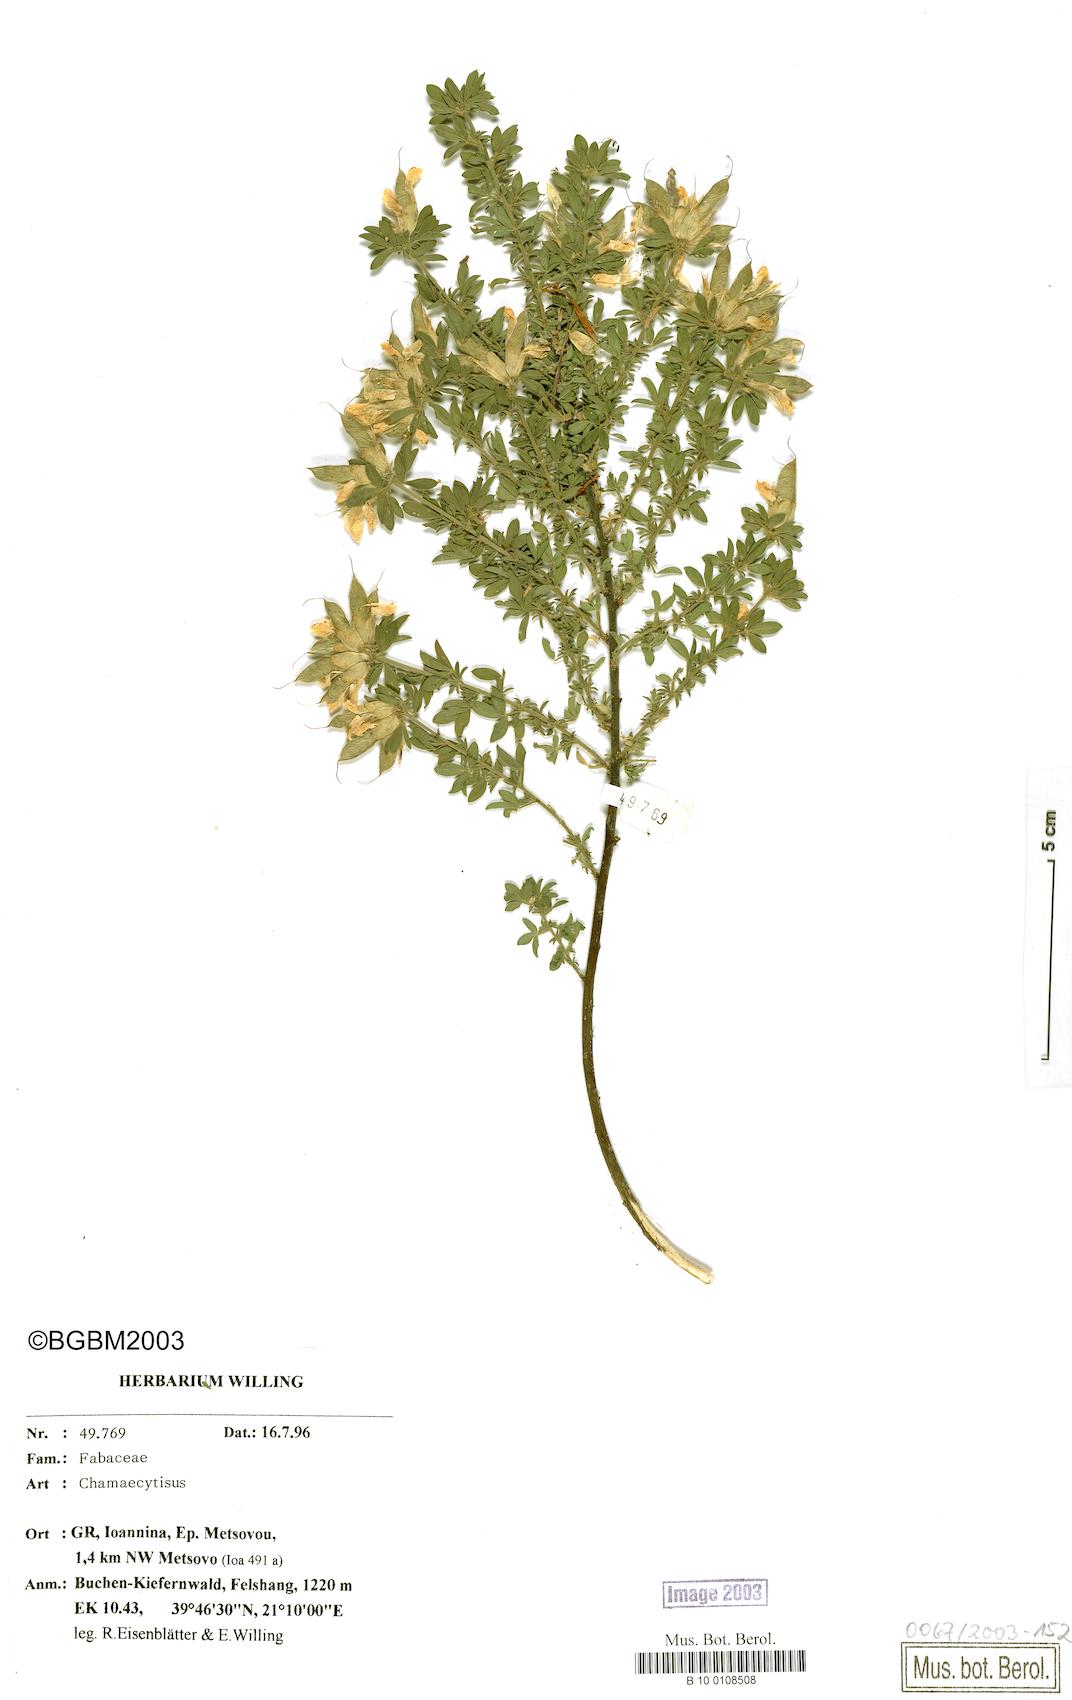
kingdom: Plantae
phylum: Tracheophyta
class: Magnoliopsida
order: Fabales
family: Fabaceae
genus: Chamaecytisus
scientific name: Chamaecytisus
